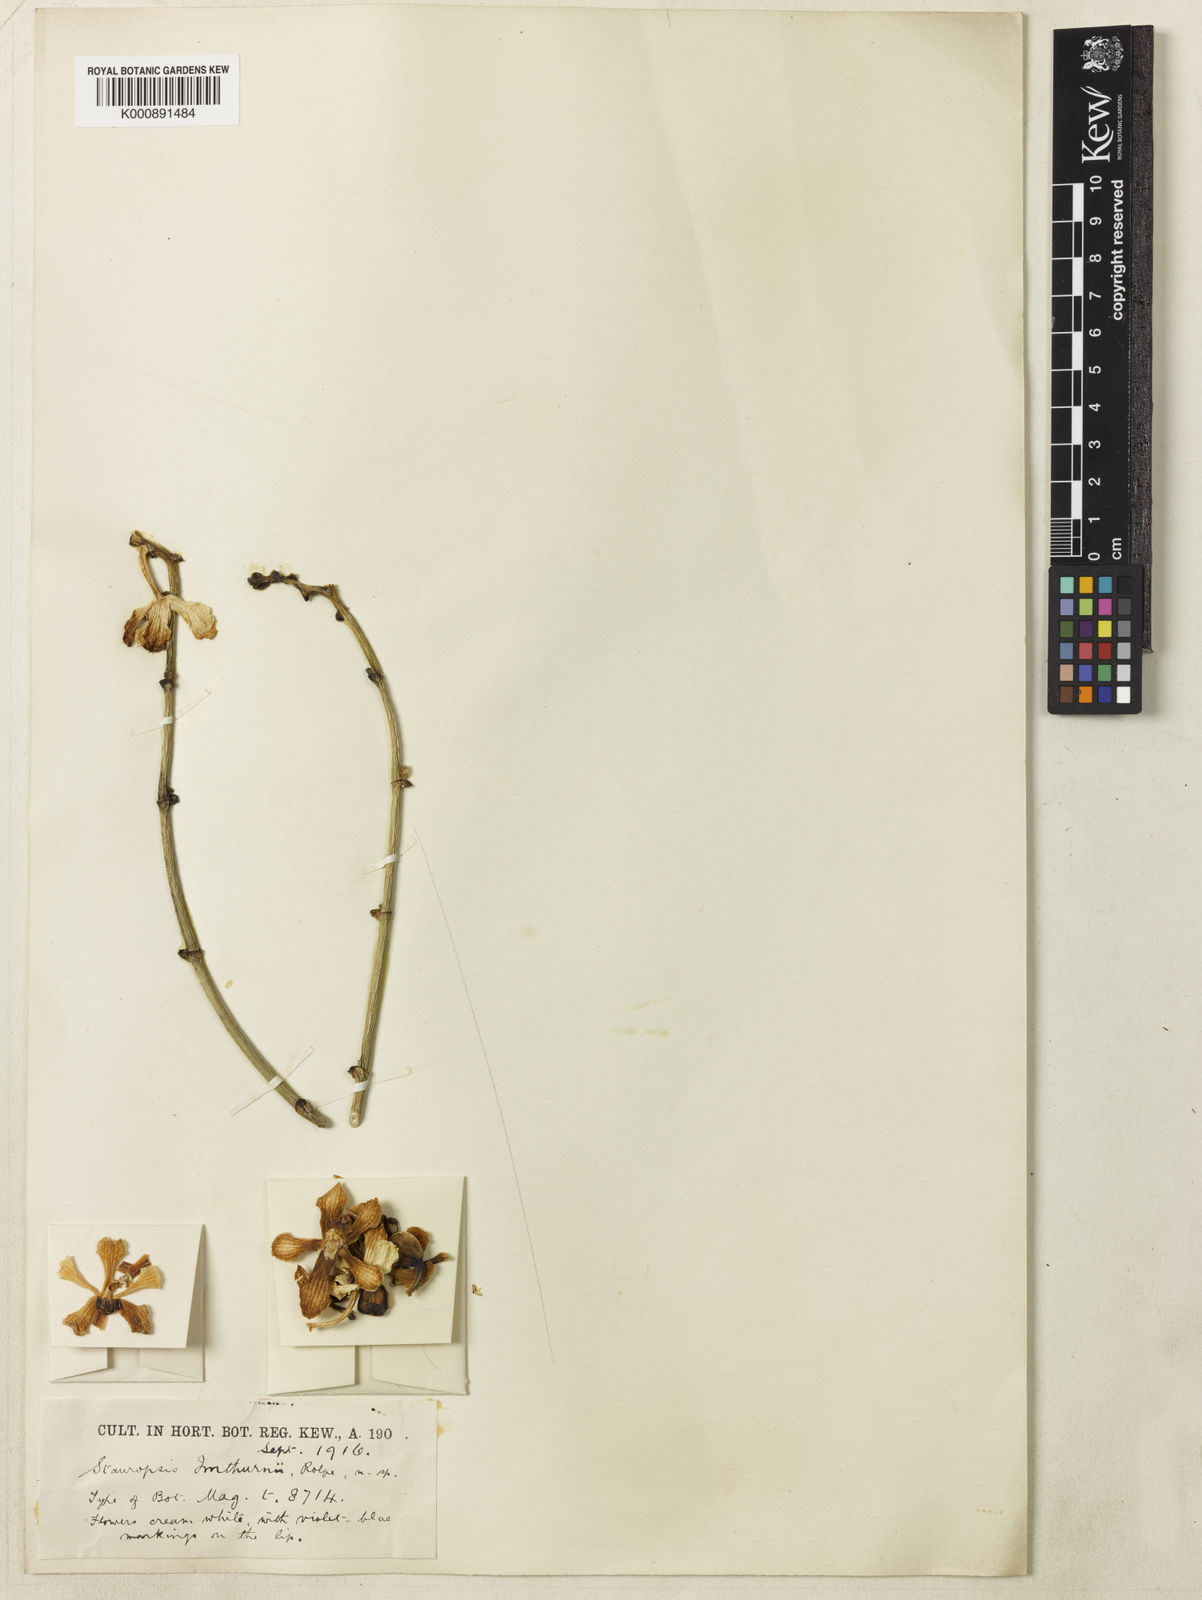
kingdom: Plantae
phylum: Tracheophyta
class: Liliopsida
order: Asparagales
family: Orchidaceae
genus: Dimorphorchis
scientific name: Dimorphorchis beccarii
